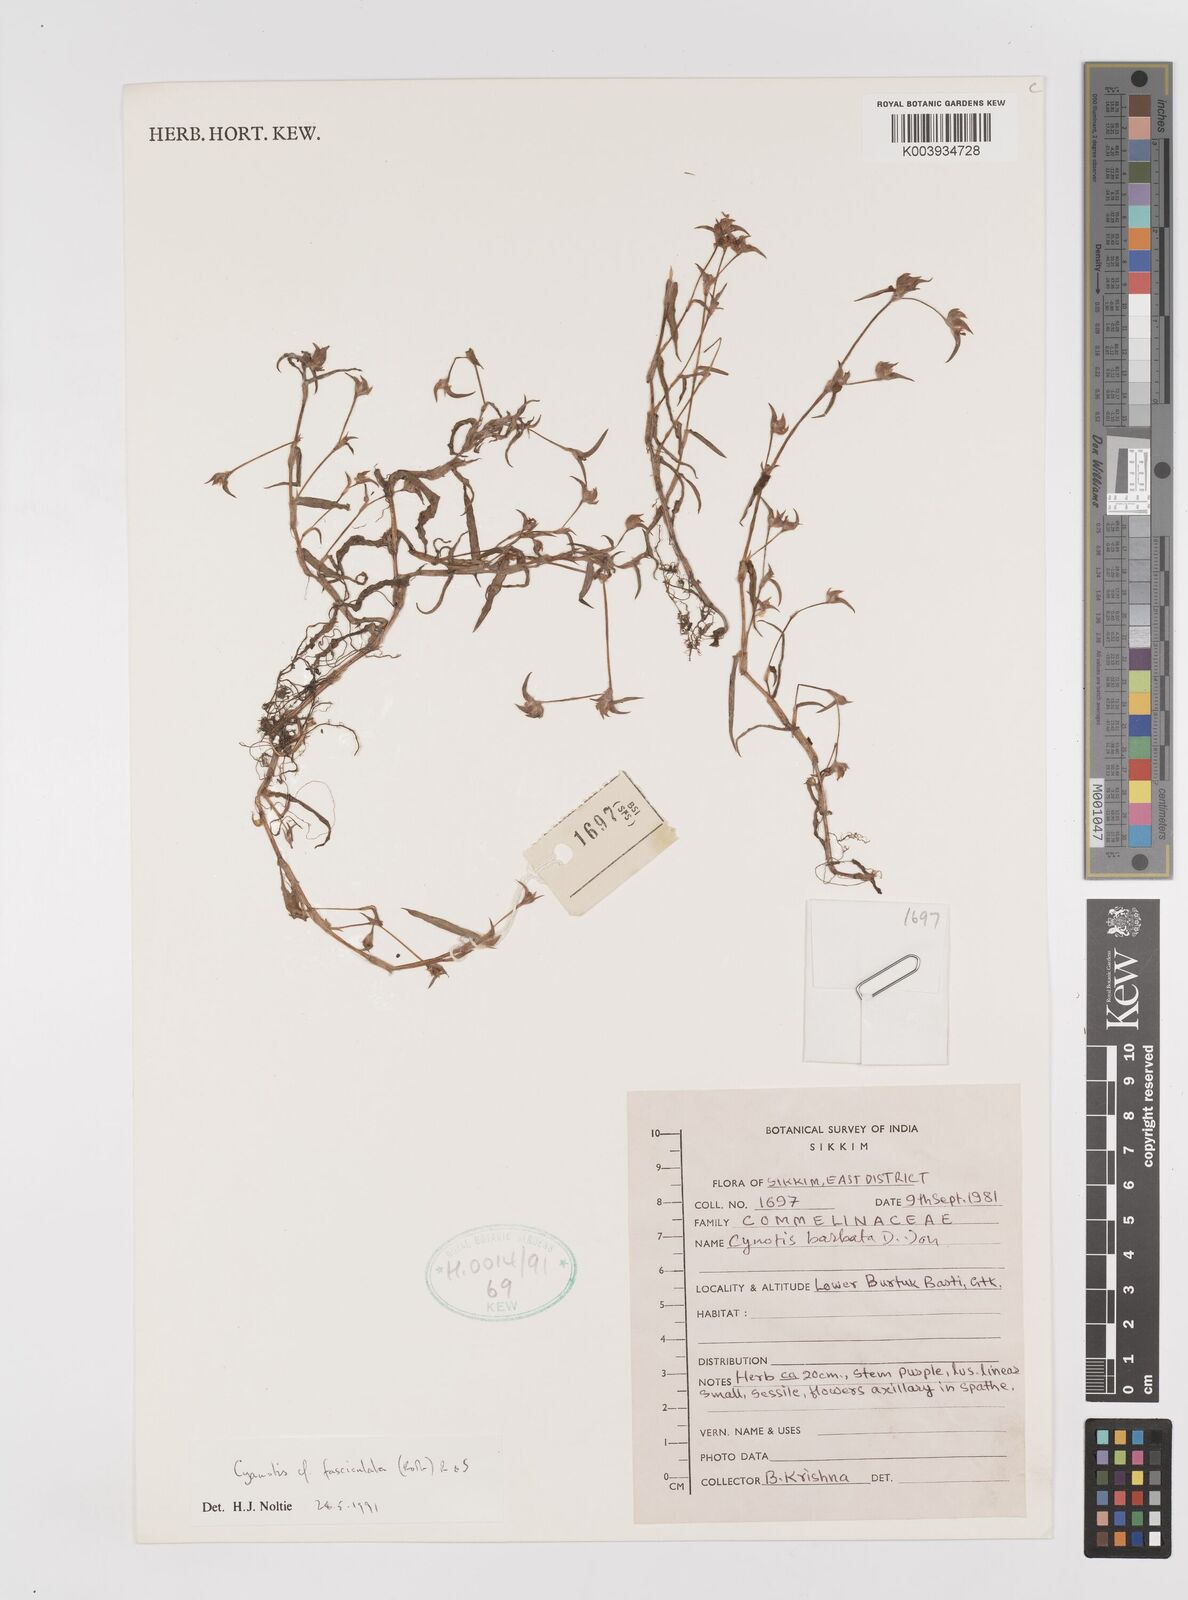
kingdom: Plantae
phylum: Tracheophyta
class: Liliopsida
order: Commelinales
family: Commelinaceae
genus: Cyanotis
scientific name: Cyanotis fasciculata
